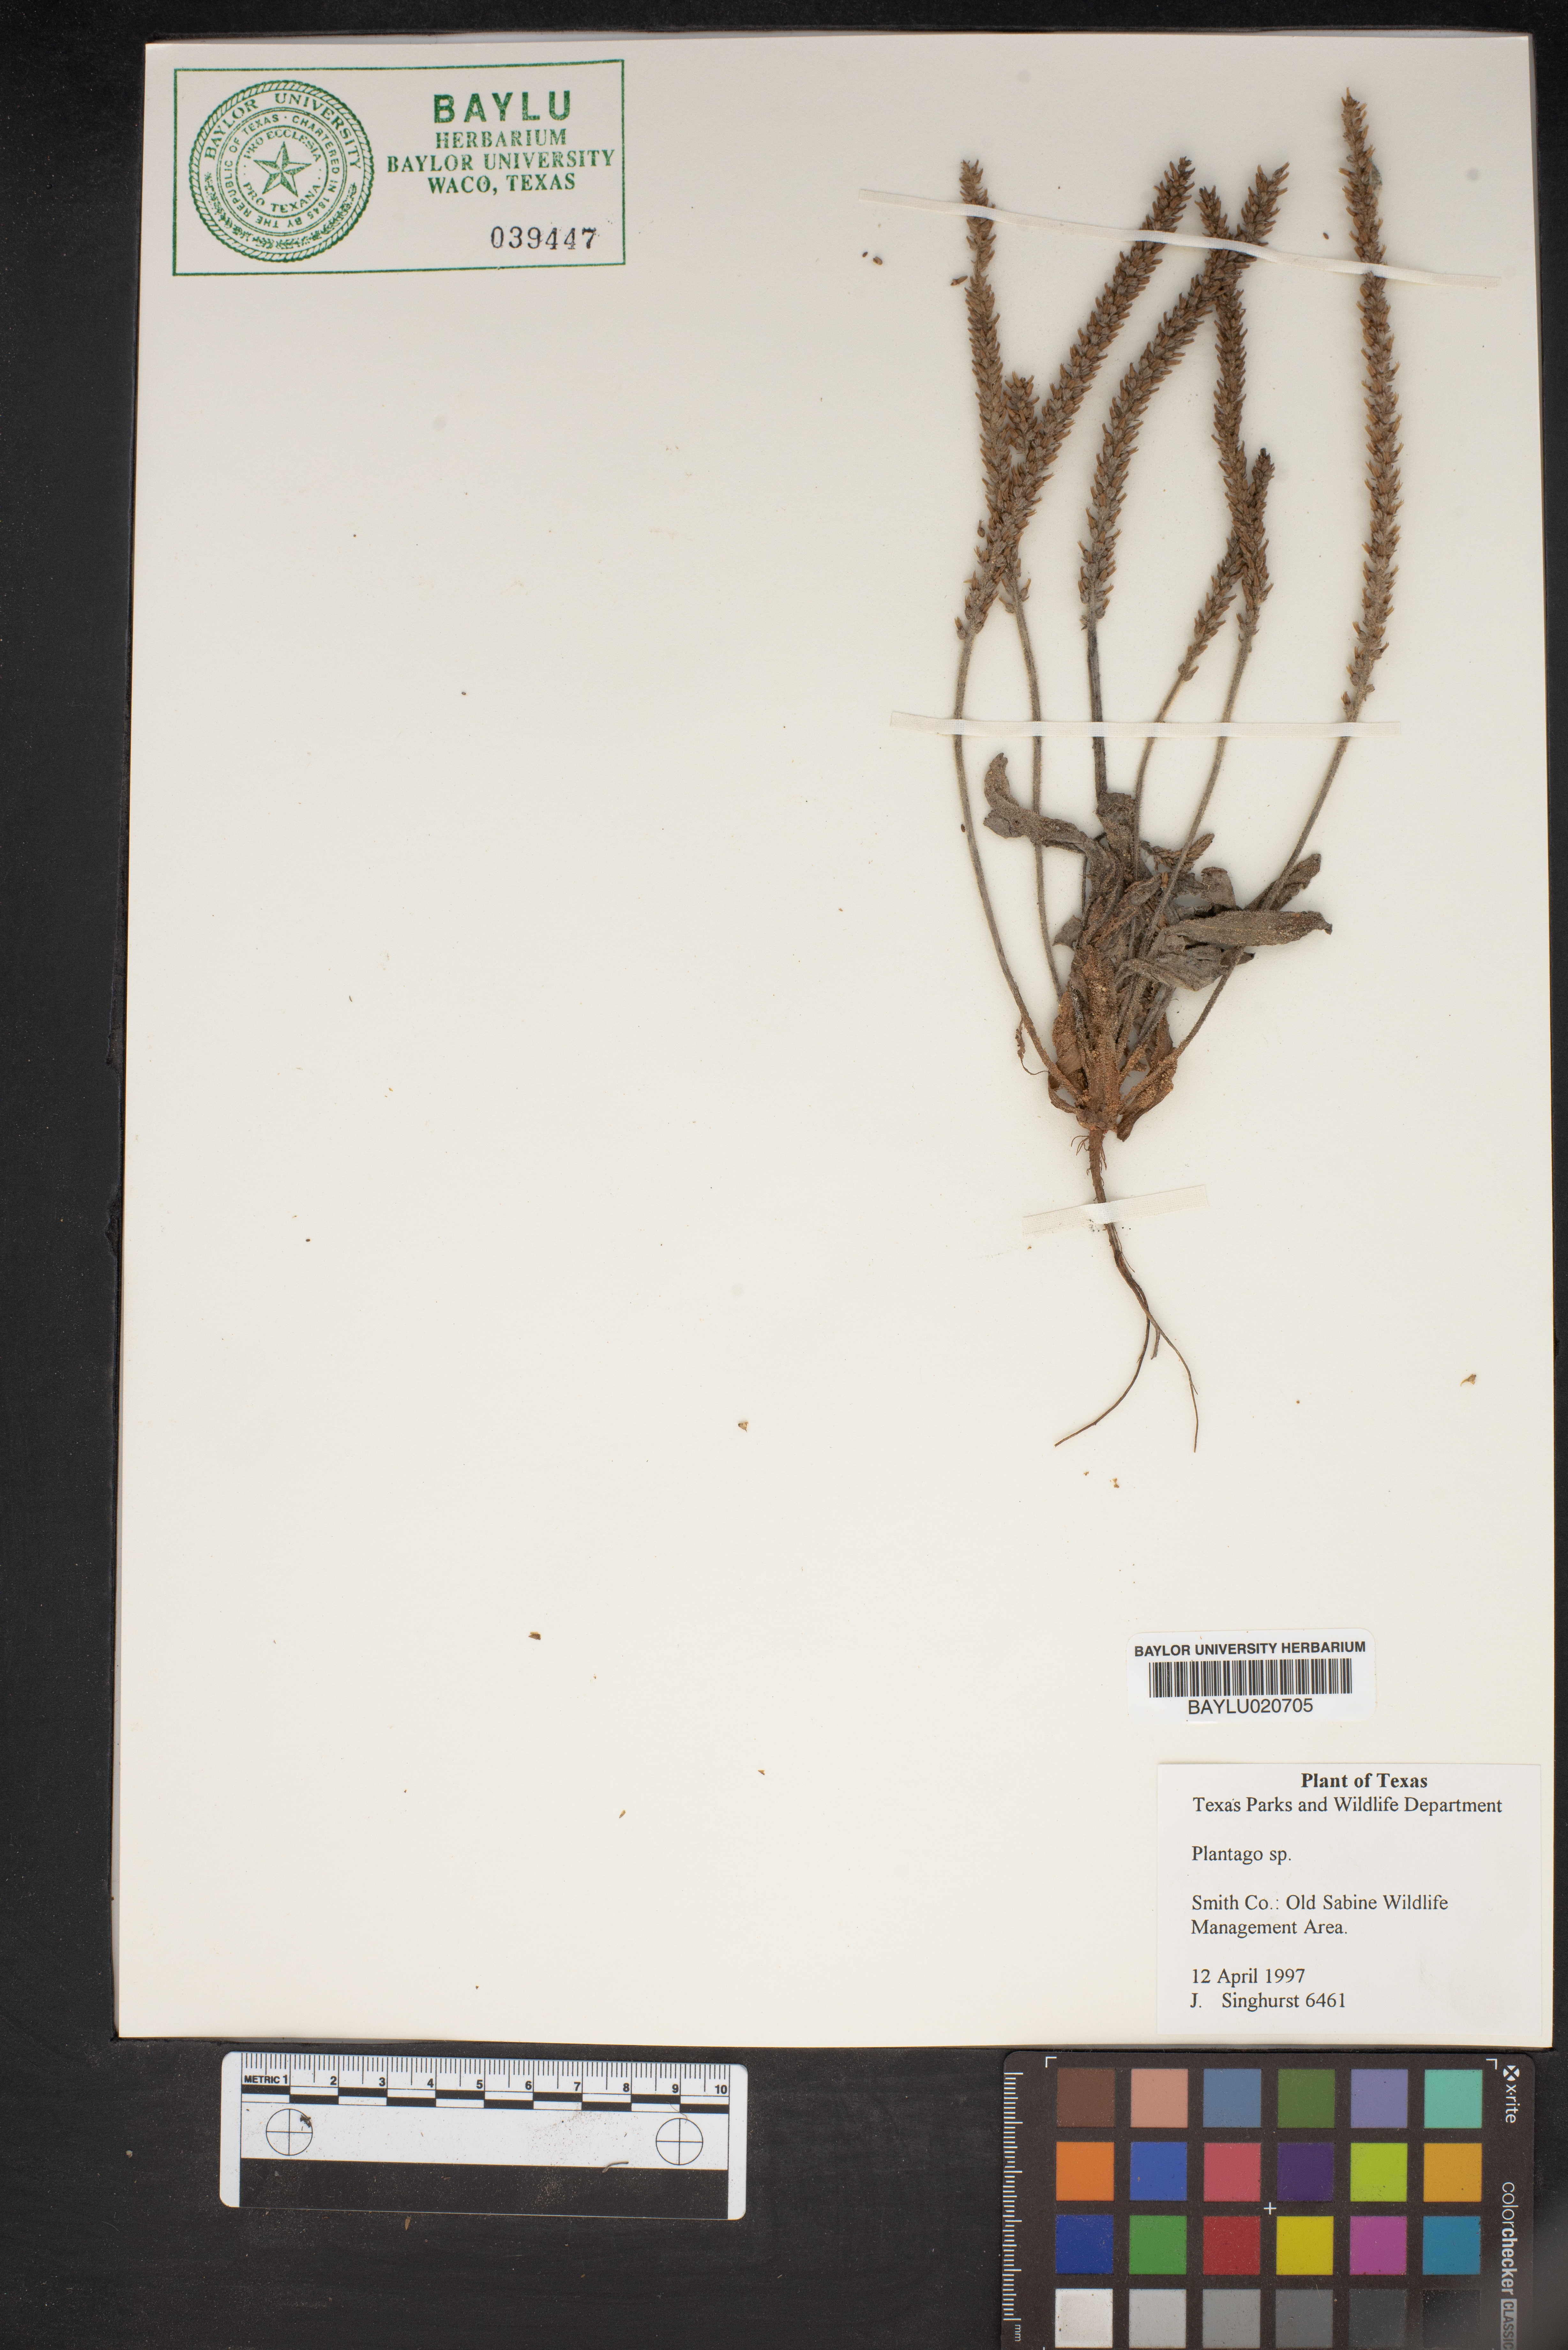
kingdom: Plantae
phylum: Tracheophyta
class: Magnoliopsida
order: Lamiales
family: Plantaginaceae
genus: Plantago
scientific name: Plantago
